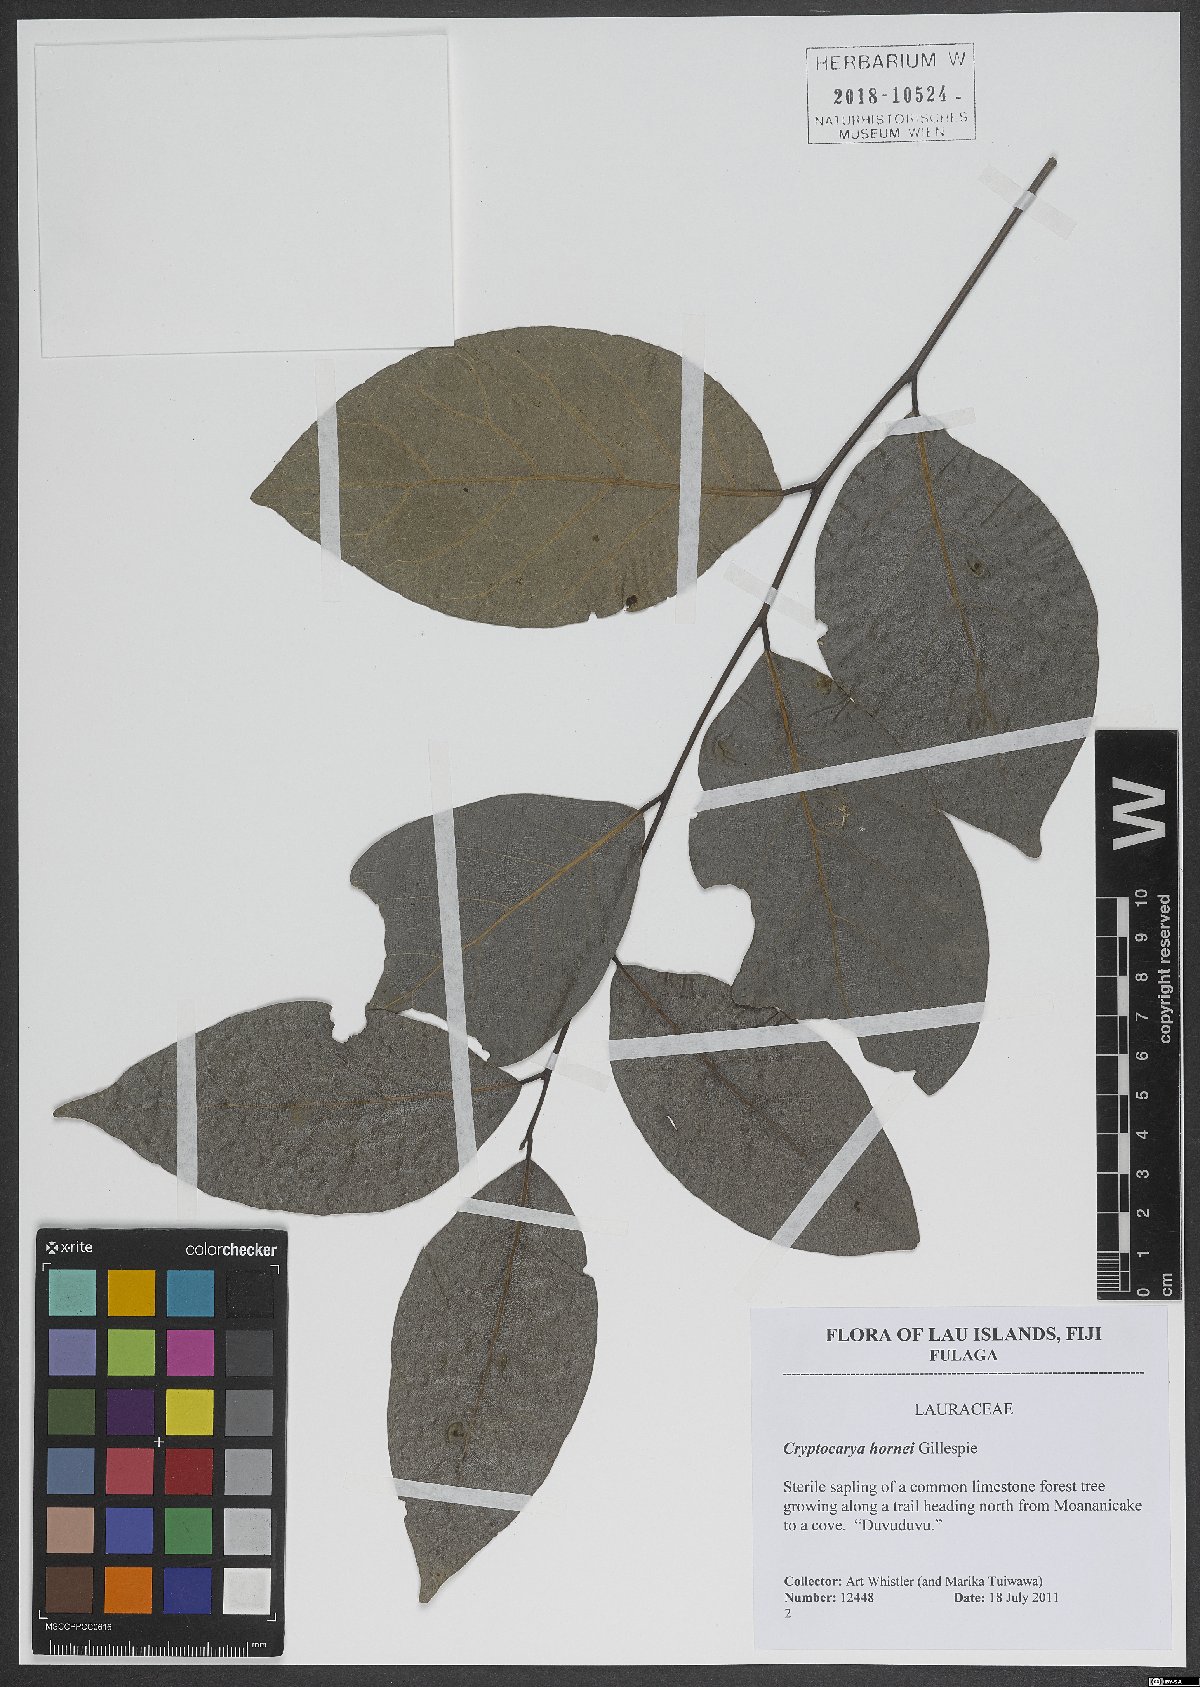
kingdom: Plantae
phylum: Tracheophyta
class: Magnoliopsida
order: Laurales
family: Lauraceae
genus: Cryptocarya
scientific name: Cryptocarya hornei
